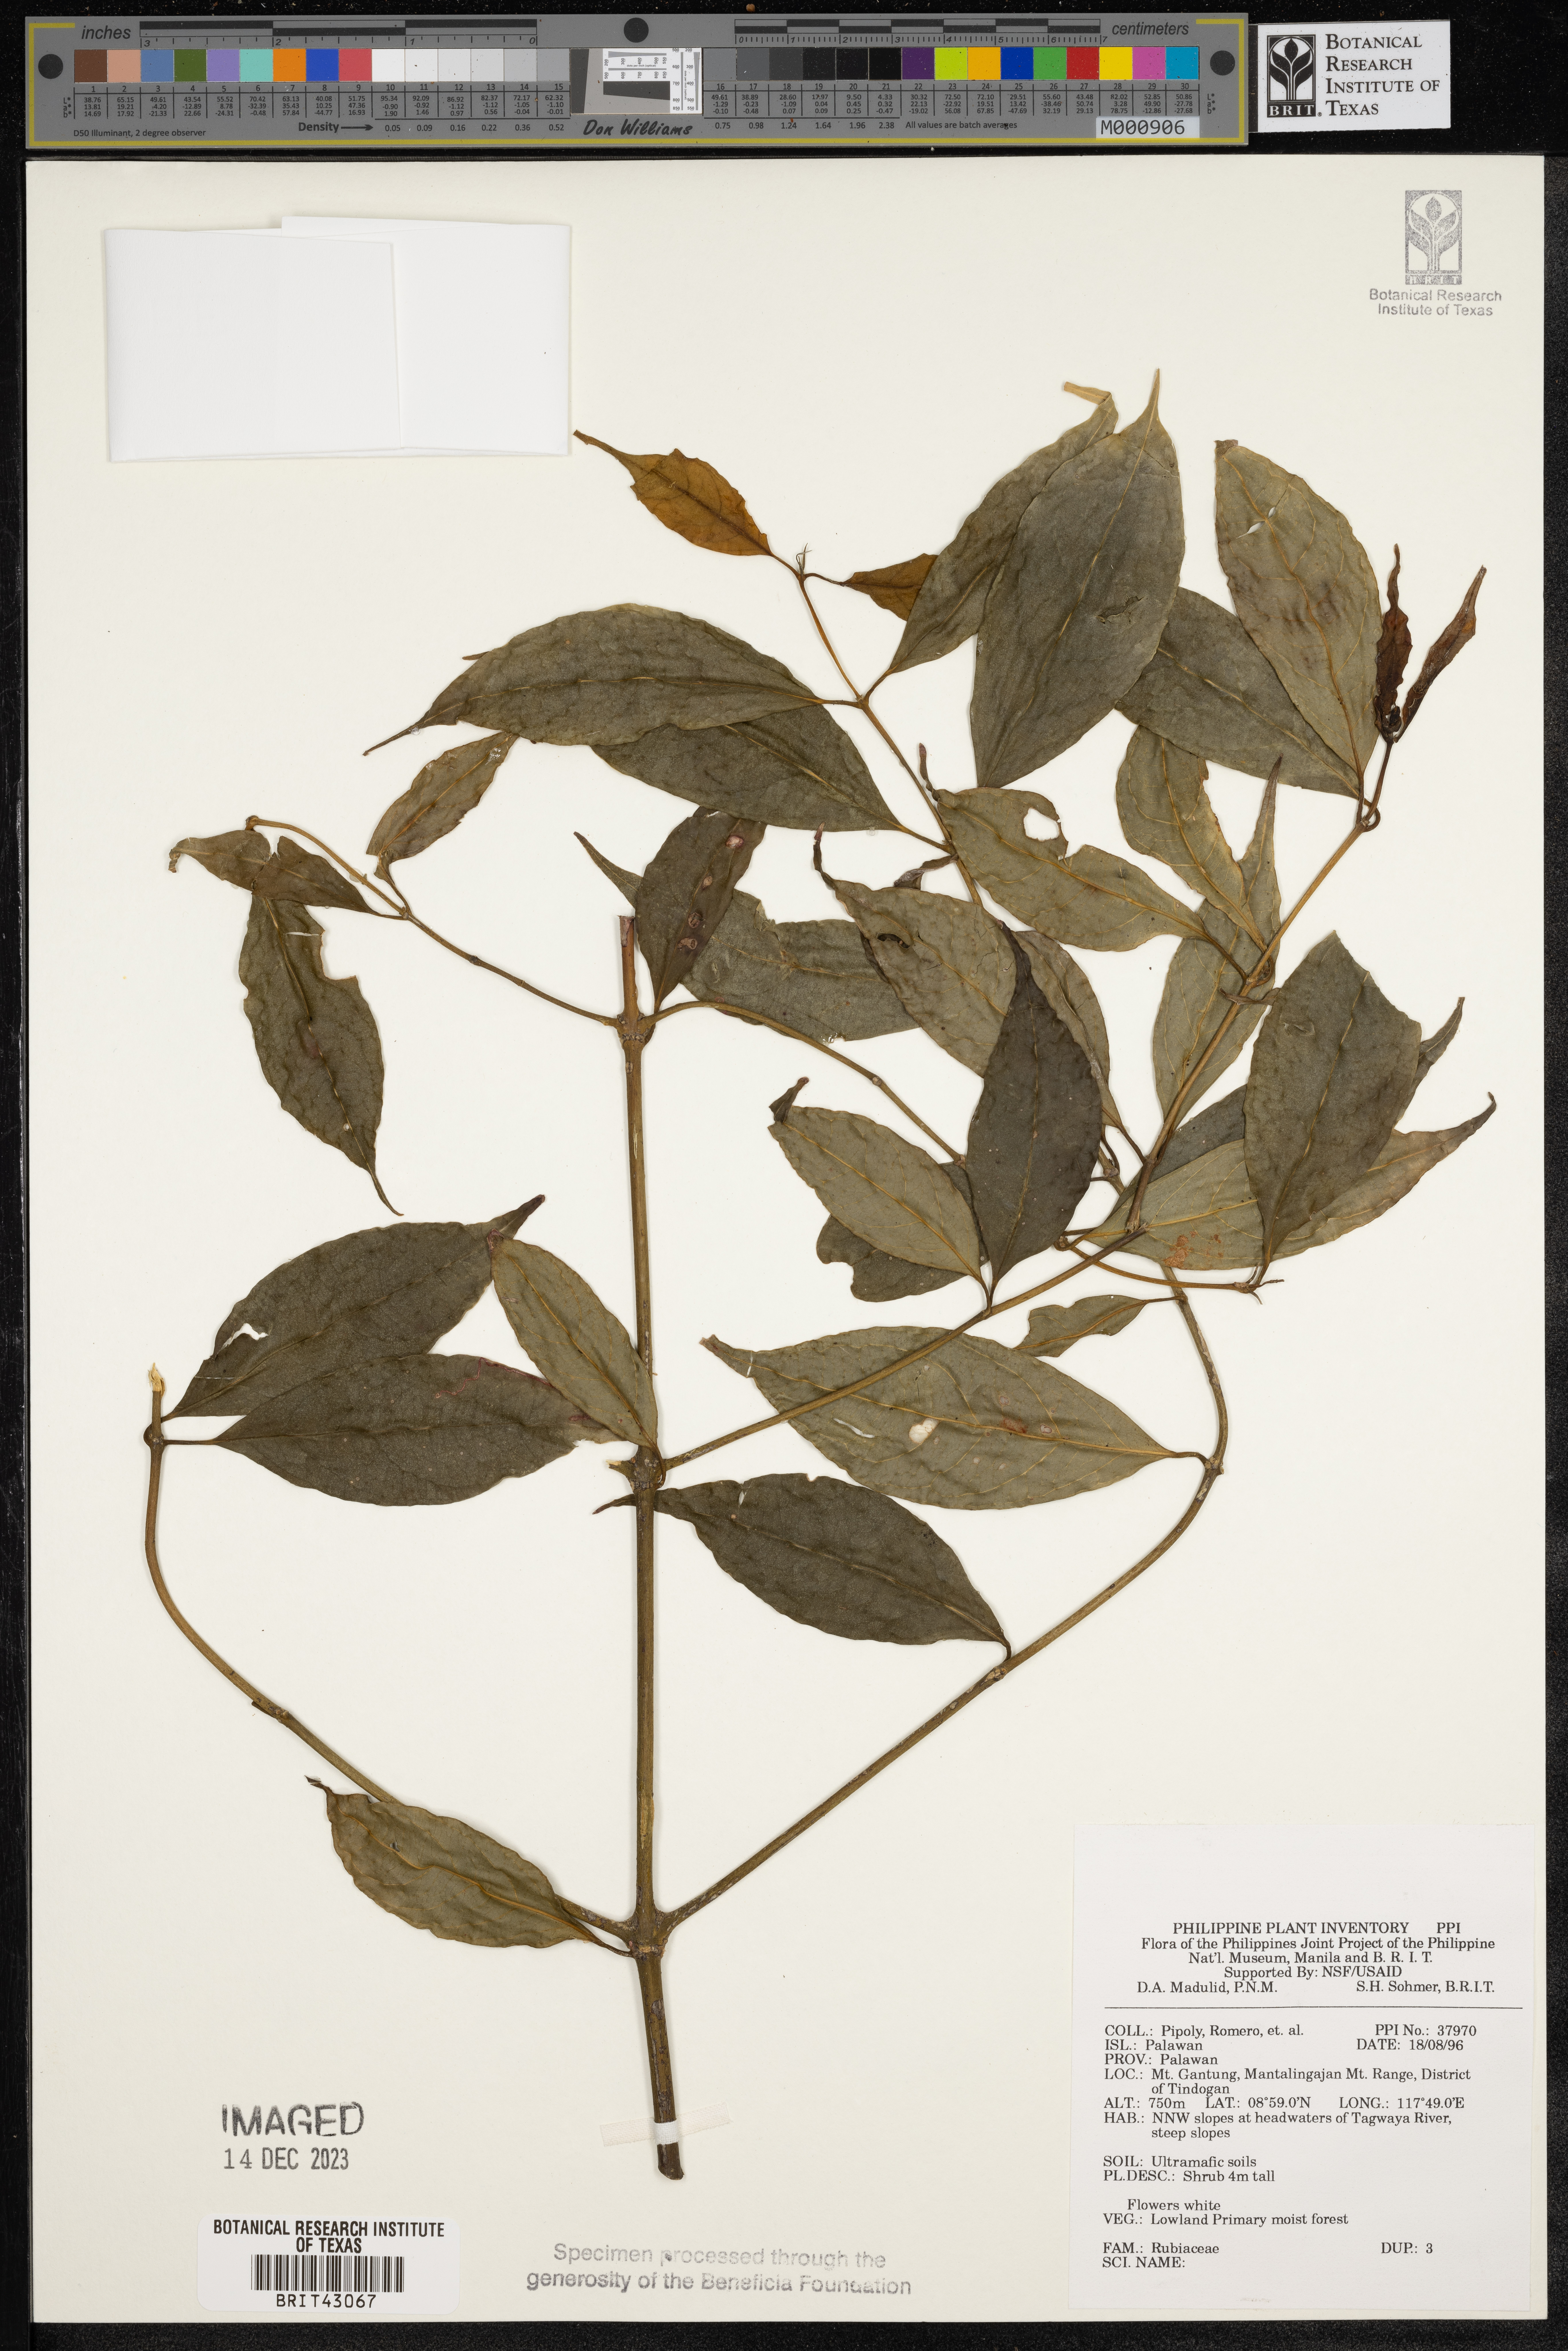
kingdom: Plantae
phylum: Tracheophyta
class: Magnoliopsida
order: Gentianales
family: Rubiaceae
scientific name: Rubiaceae
